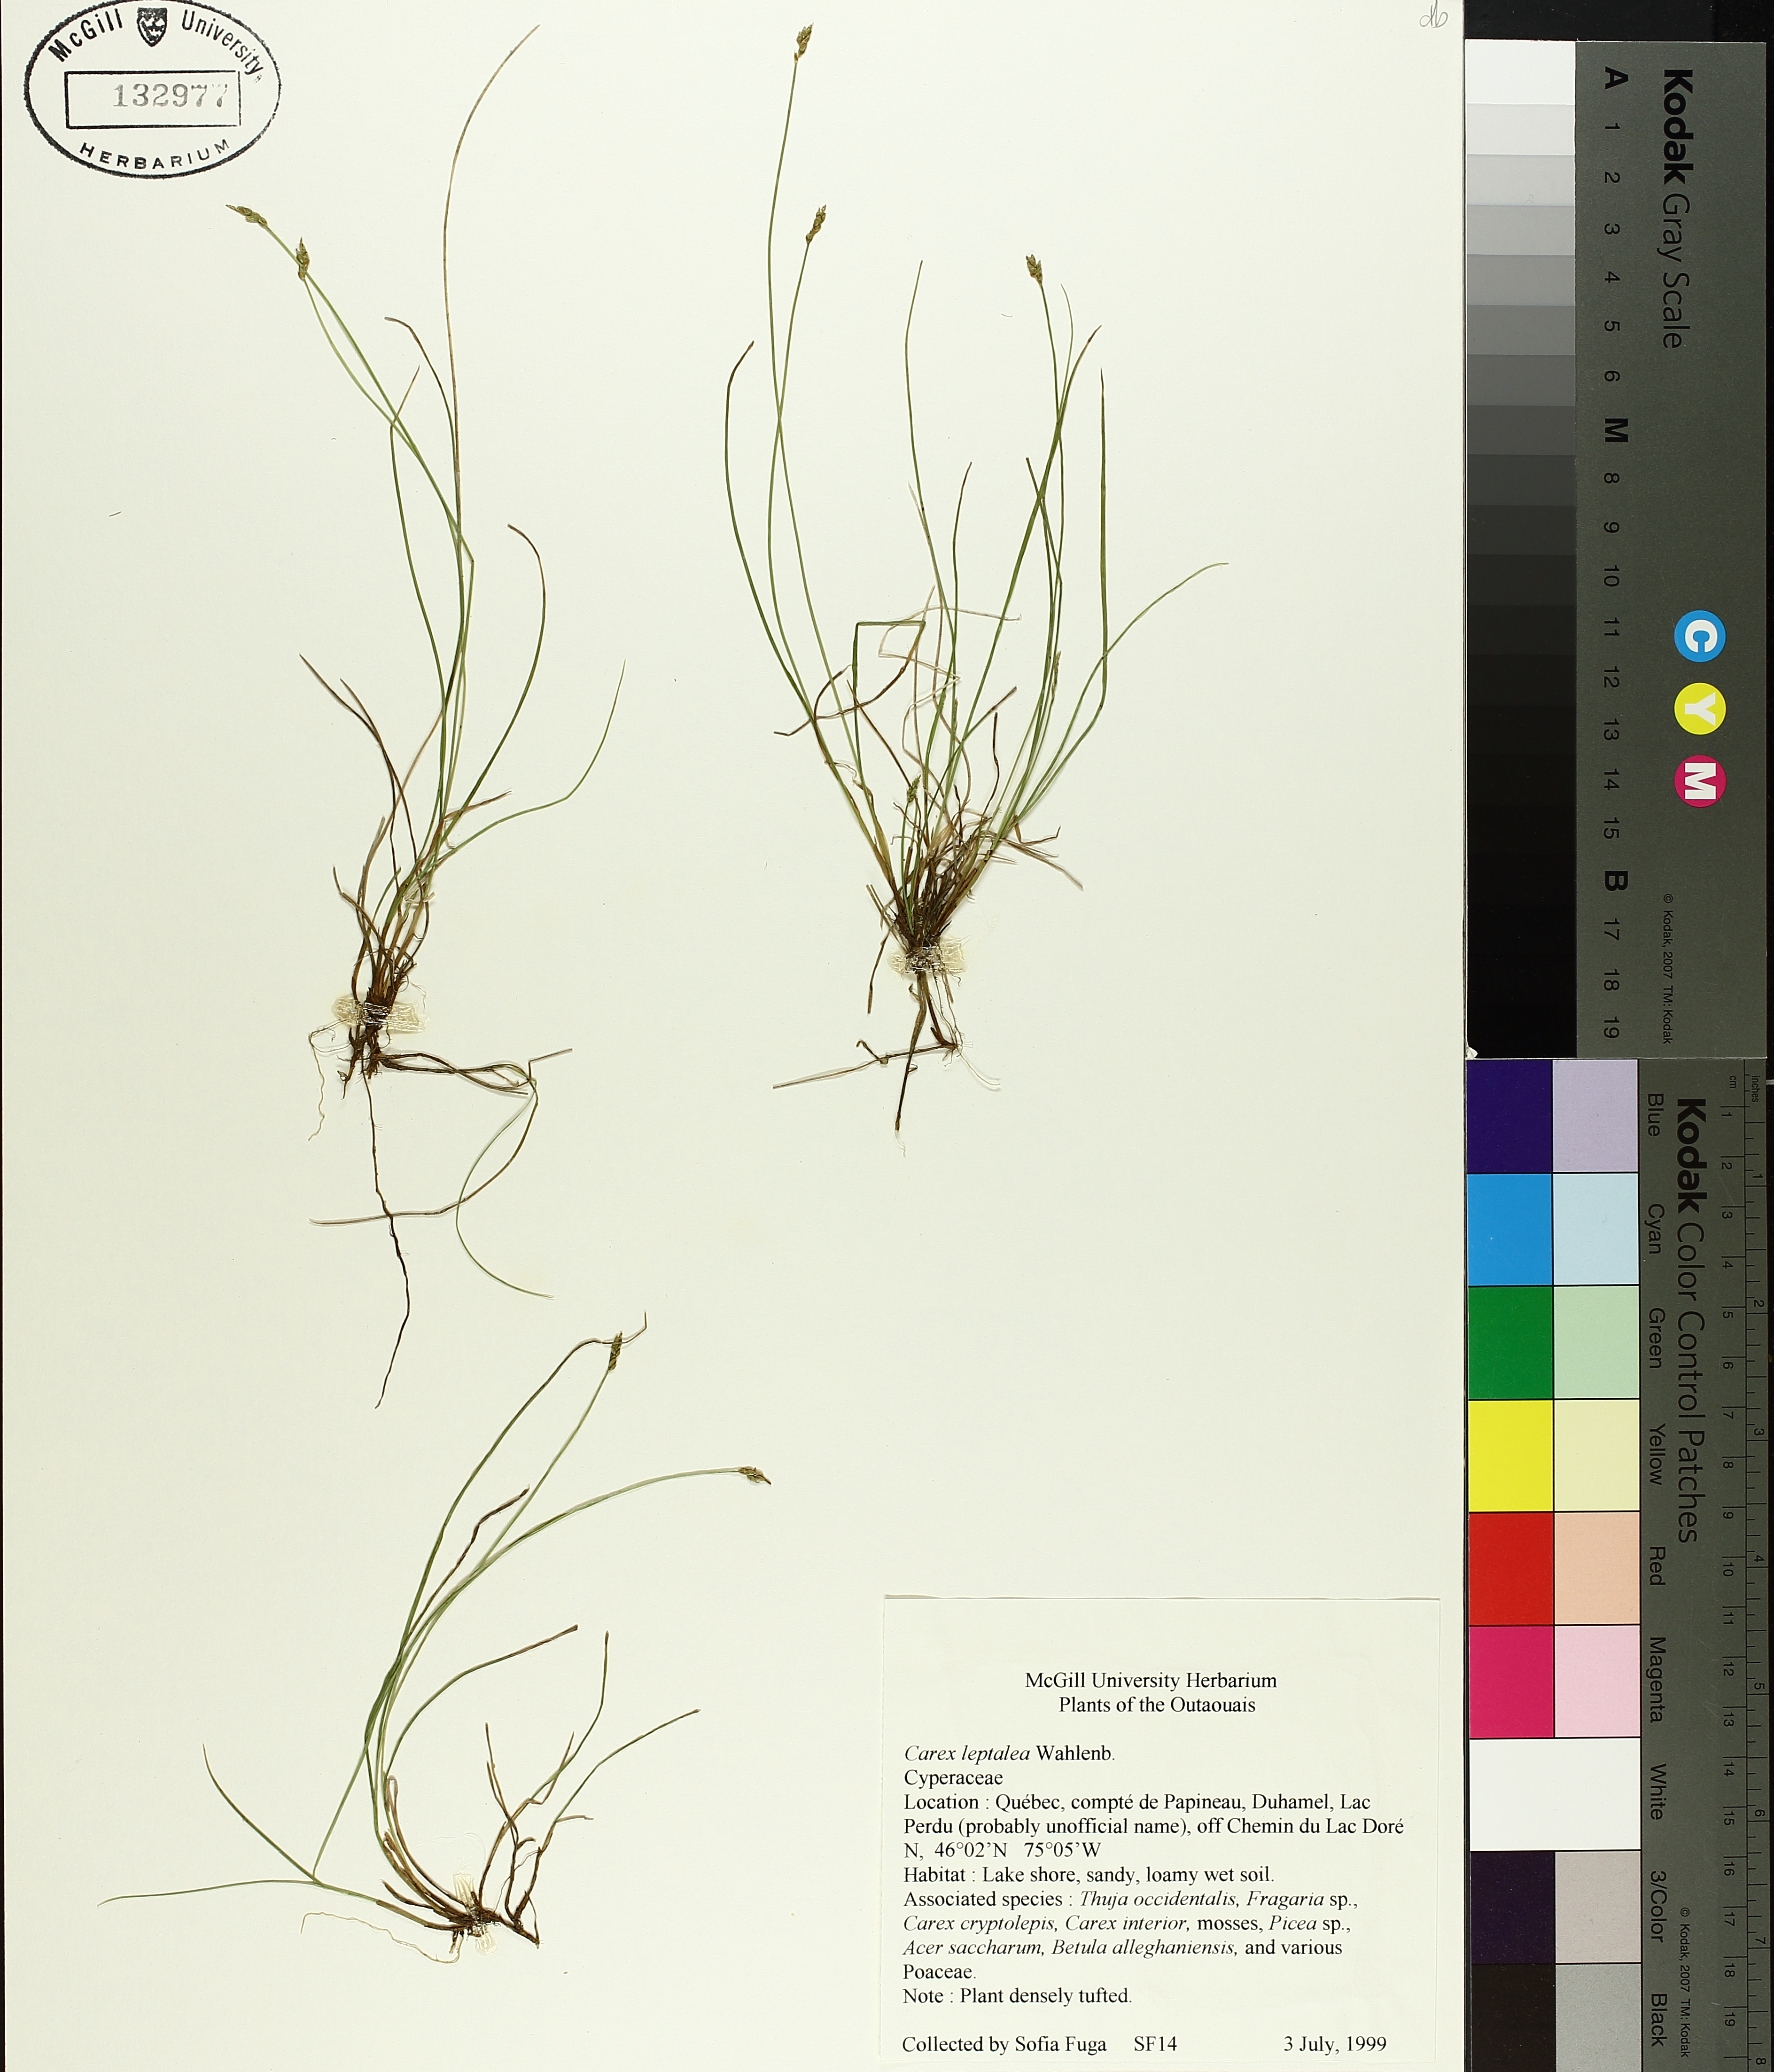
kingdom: Plantae
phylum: Tracheophyta
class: Liliopsida
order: Poales
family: Cyperaceae
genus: Carex
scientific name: Carex leptalea
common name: Bristly-stalked sedge
